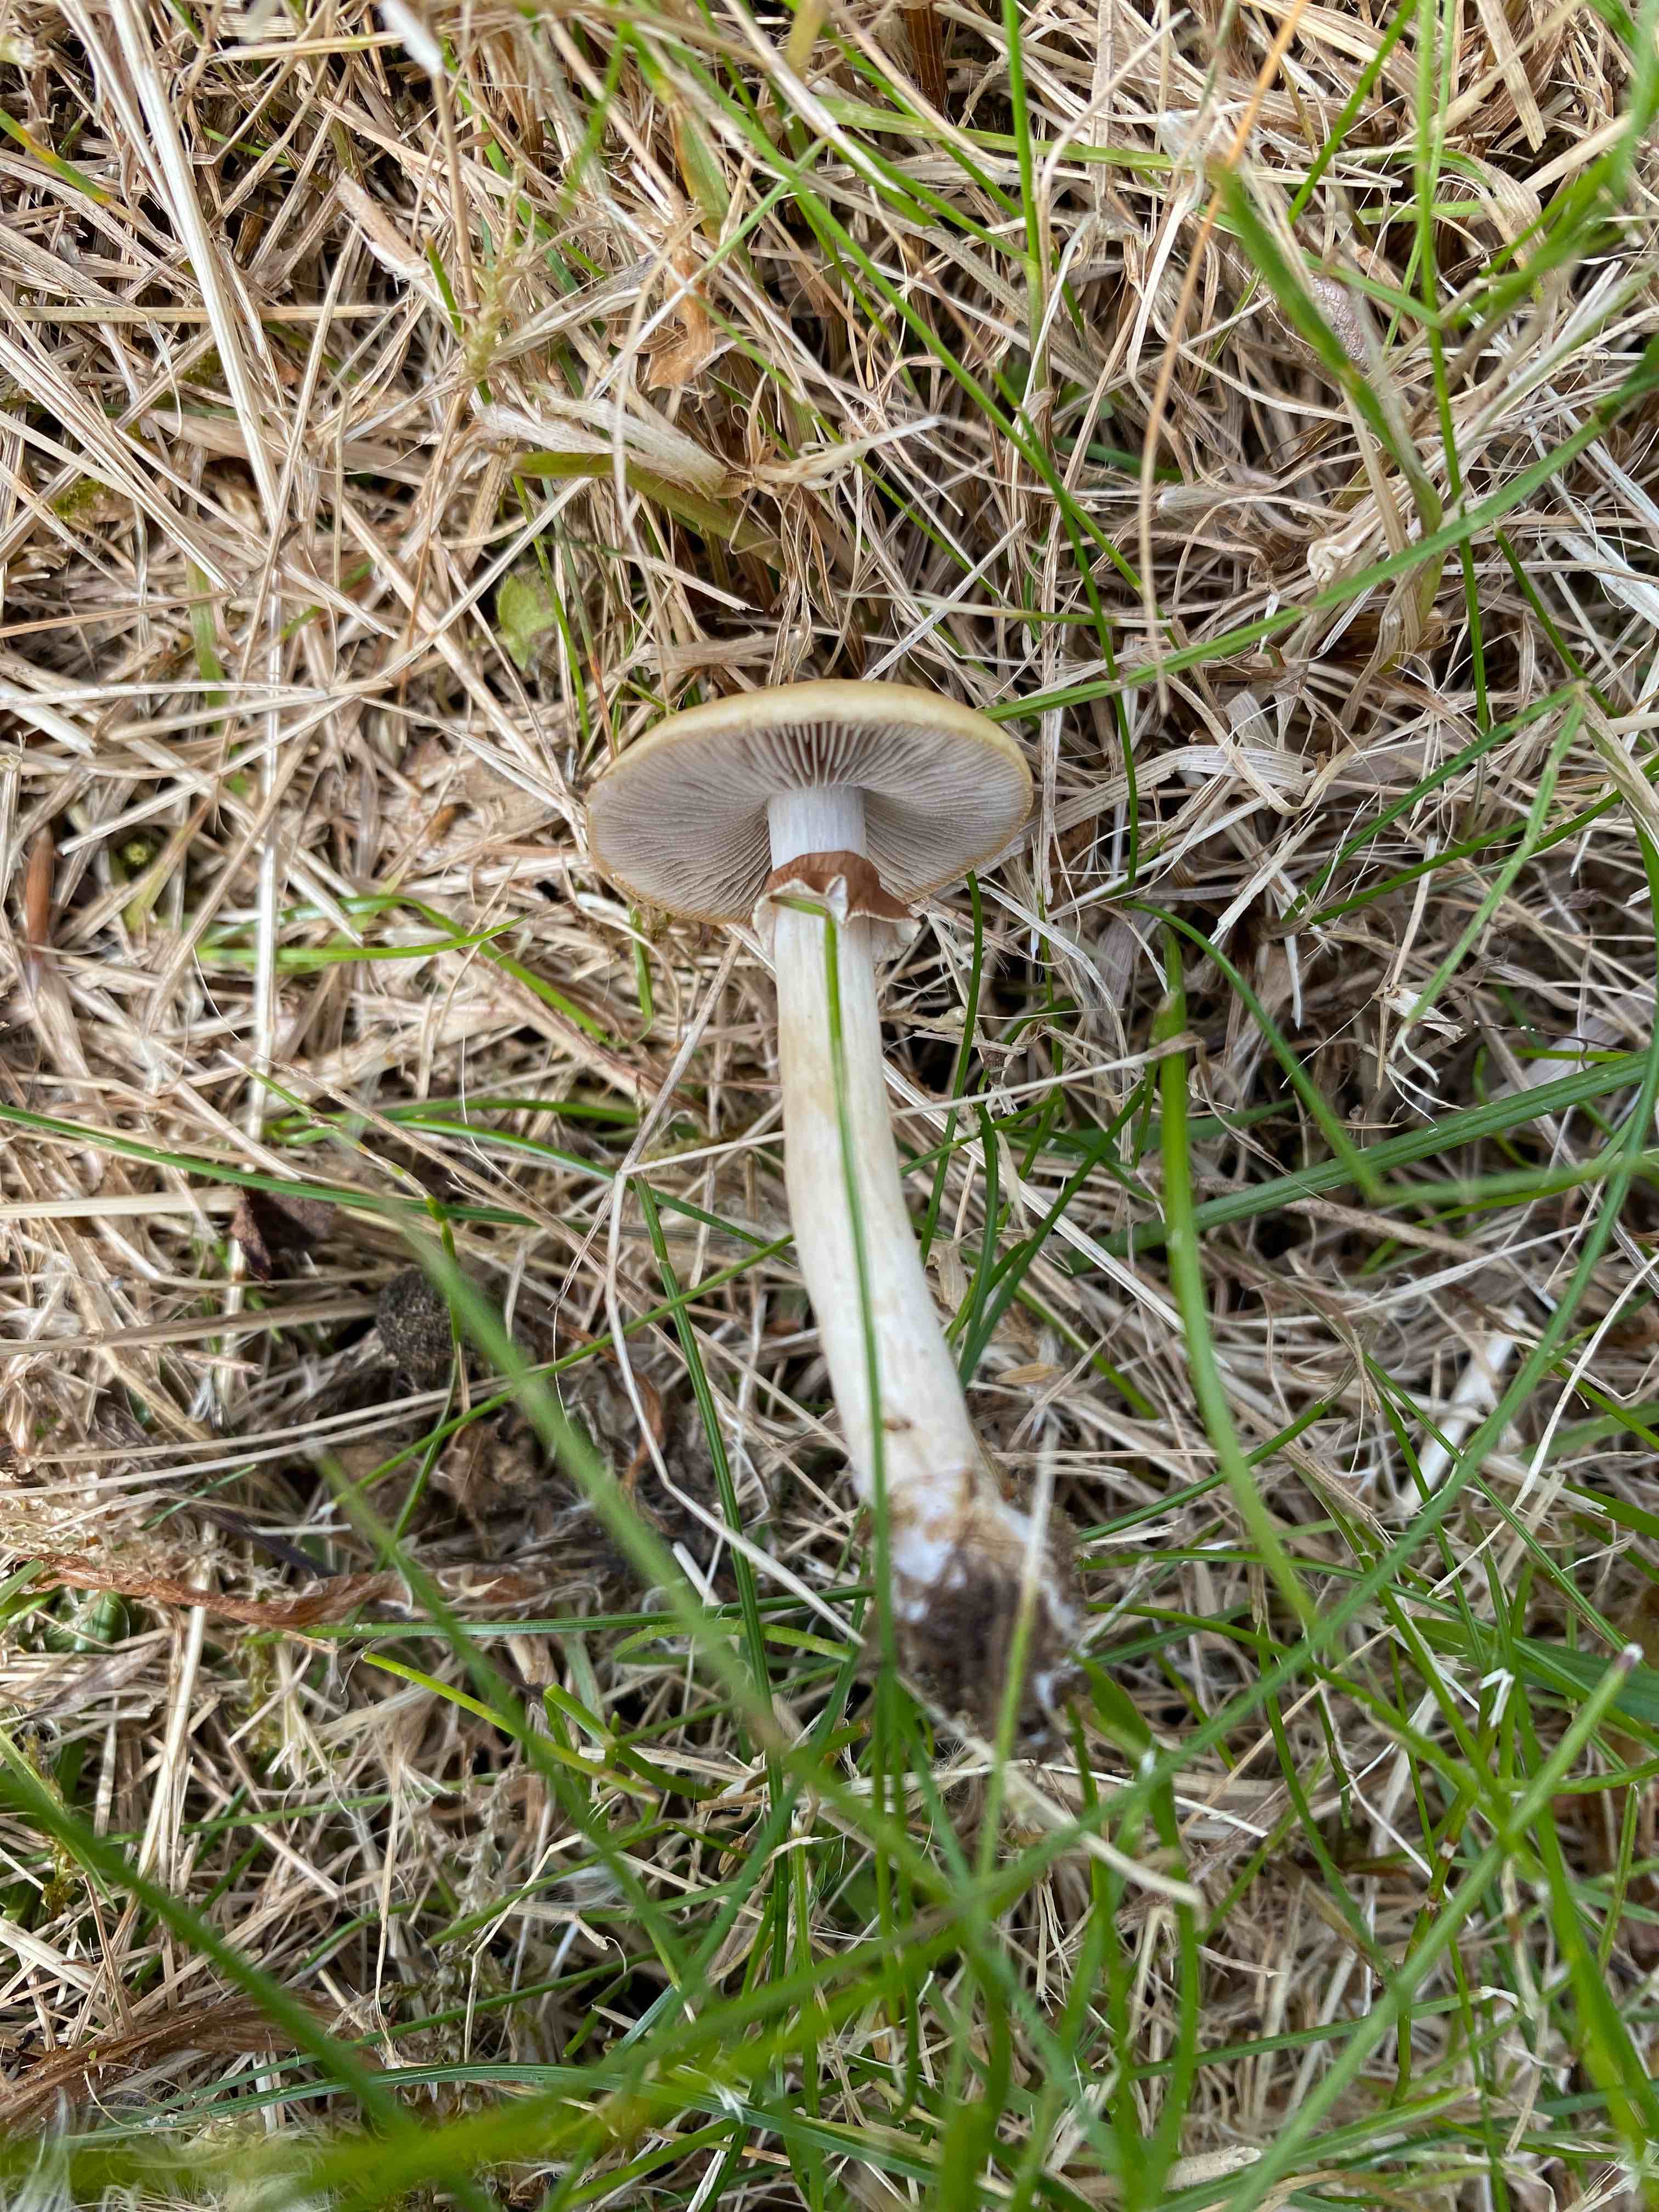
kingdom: Fungi
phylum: Basidiomycota
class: Agaricomycetes
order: Agaricales
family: Strophariaceae
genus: Agrocybe
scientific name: Agrocybe praecox
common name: tidlig agerhat
